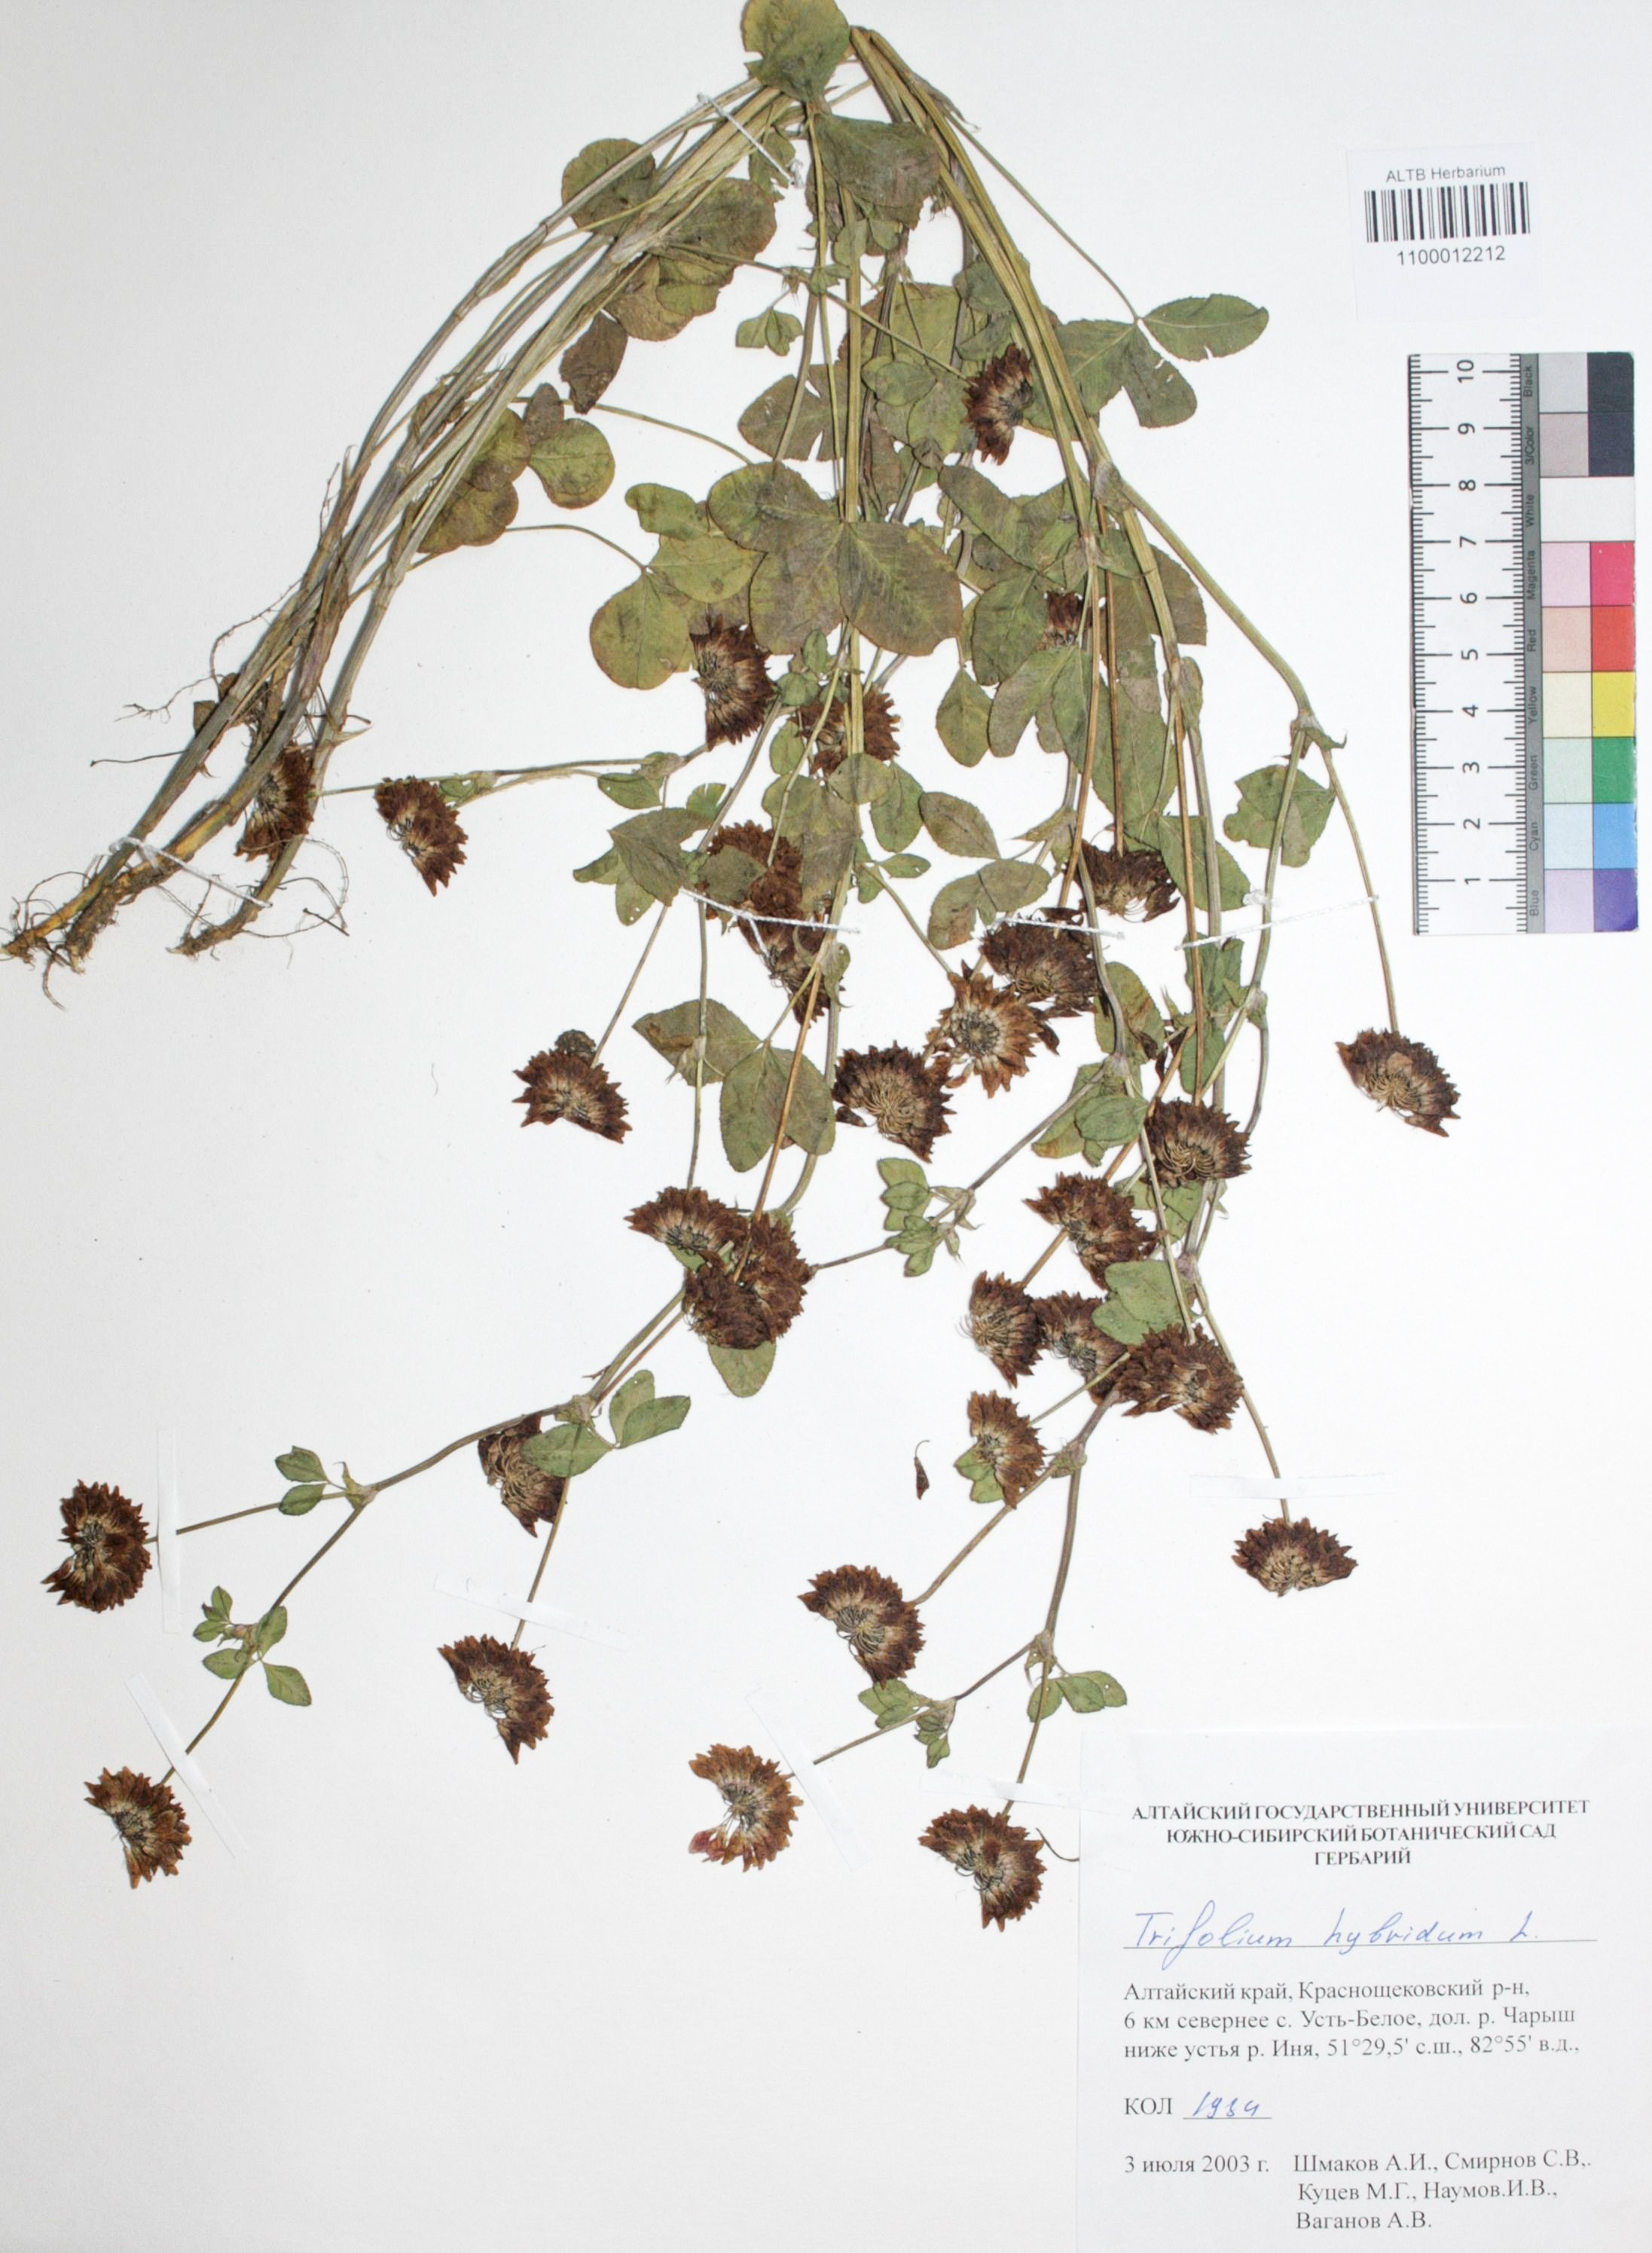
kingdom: Plantae
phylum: Tracheophyta
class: Magnoliopsida
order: Fabales
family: Fabaceae
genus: Trifolium
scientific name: Trifolium hybridum
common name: Alsike clover
